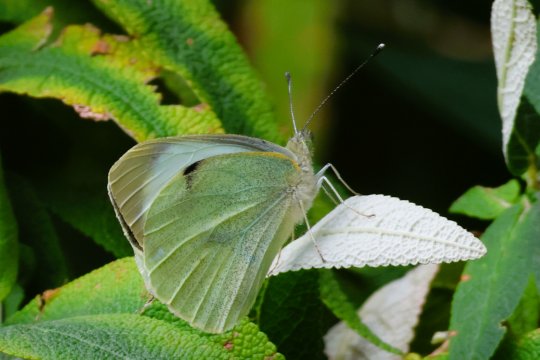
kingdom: Animalia
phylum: Arthropoda
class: Insecta
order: Lepidoptera
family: Pieridae
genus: Pieris
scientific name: Pieris rapae
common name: Cabbage White
